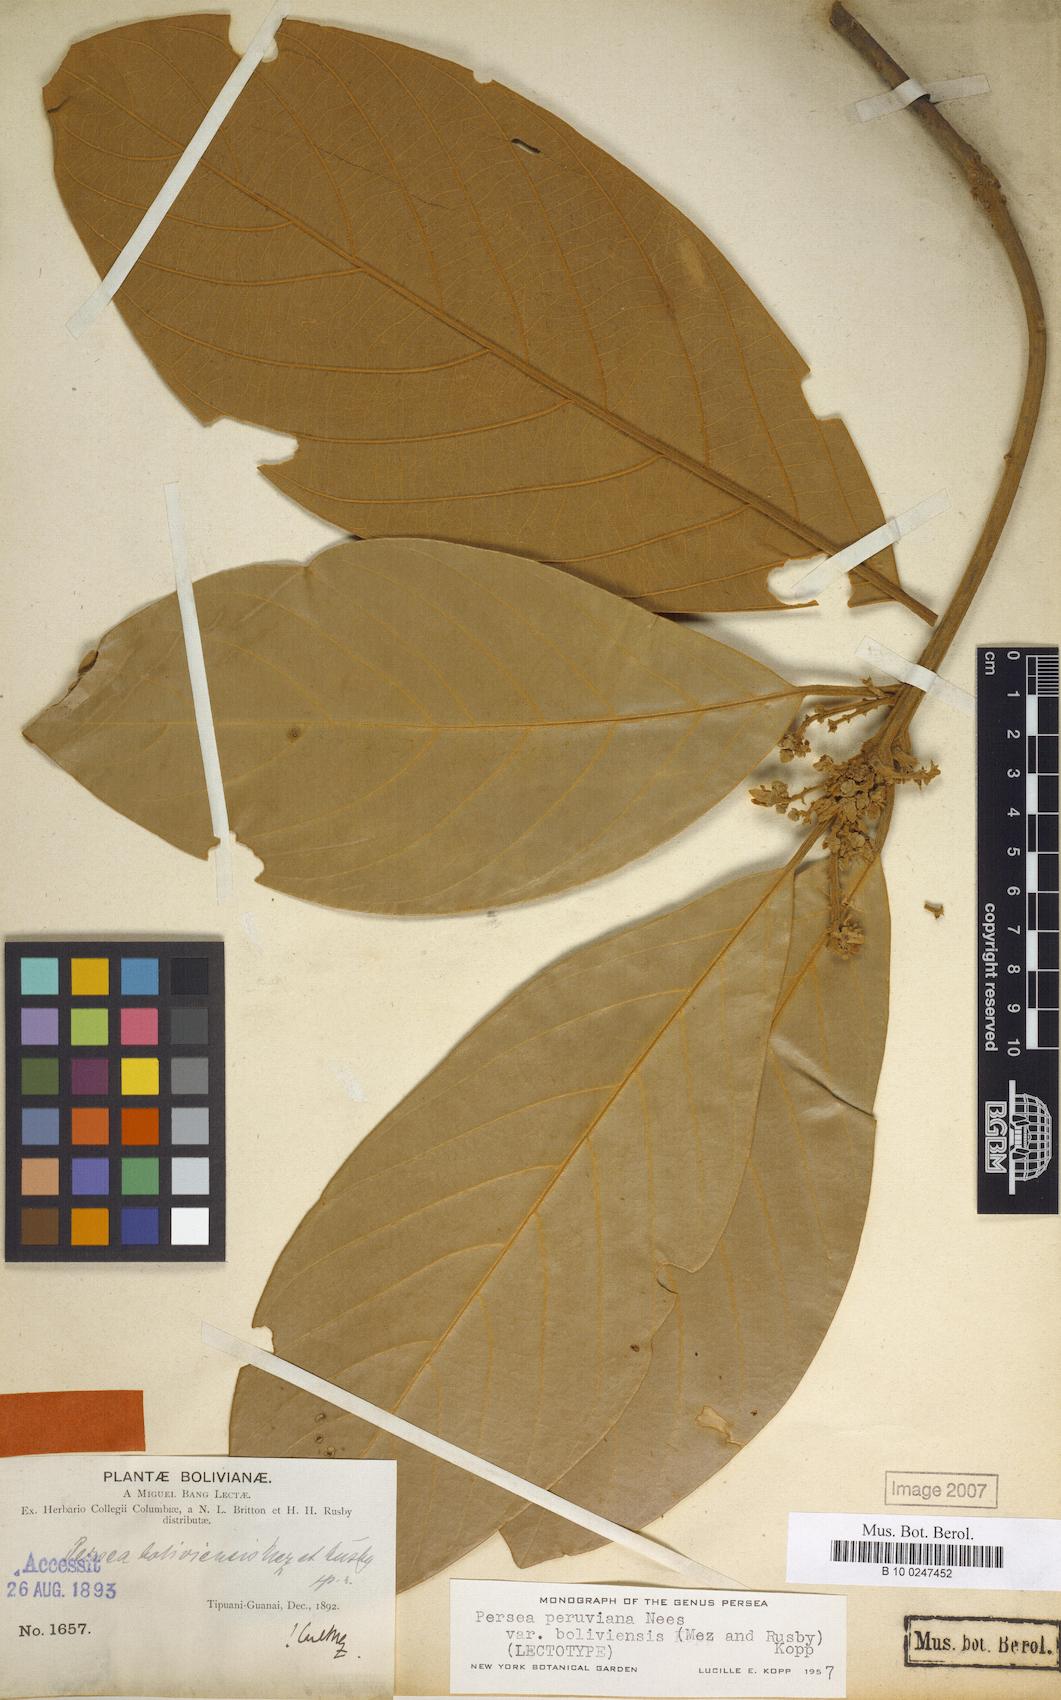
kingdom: Plantae
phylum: Tracheophyta
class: Magnoliopsida
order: Laurales
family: Lauraceae
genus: Persea
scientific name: Persea peruviana
